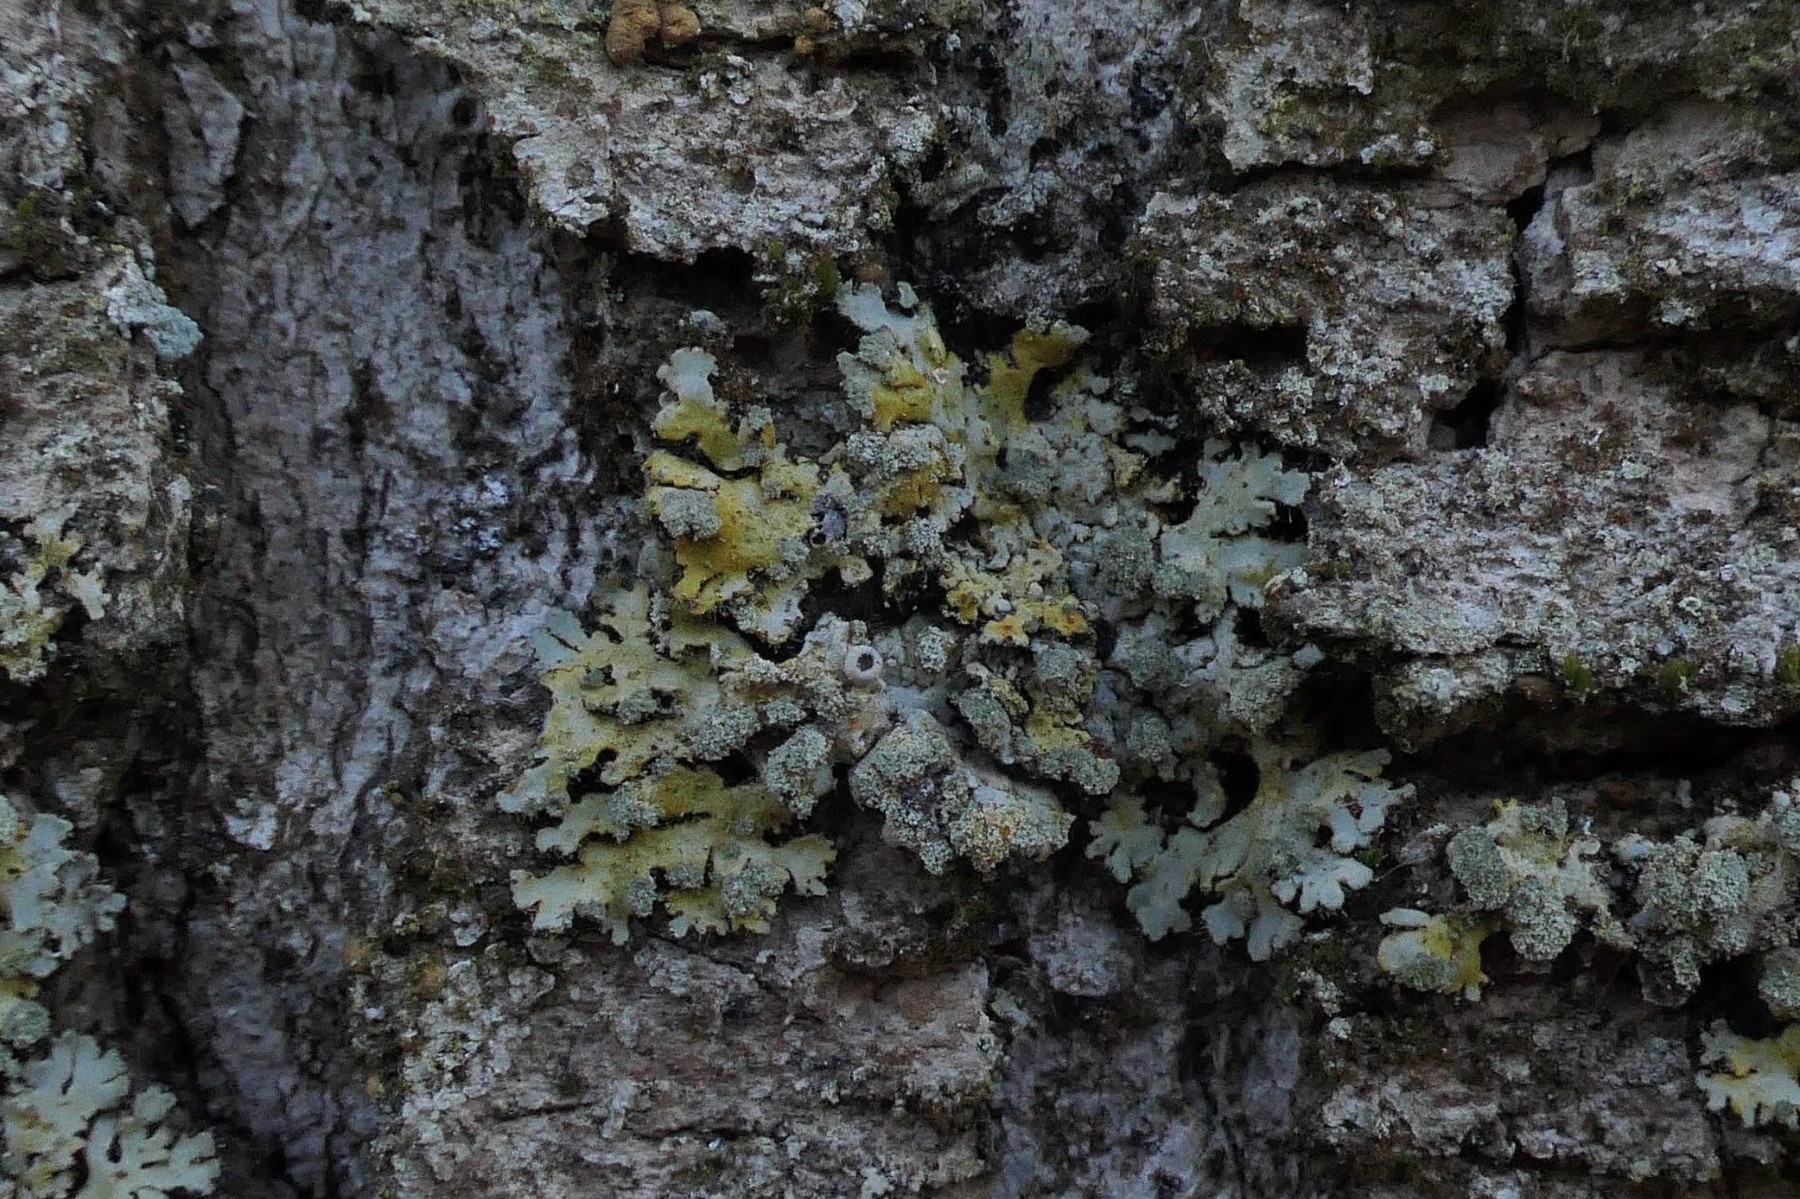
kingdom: Fungi
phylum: Ascomycota
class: Lecanoromycetes
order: Caliciales
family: Physciaceae
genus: Phaeophyscia
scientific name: Phaeophyscia orbicularis
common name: grågrøn rosetlav
